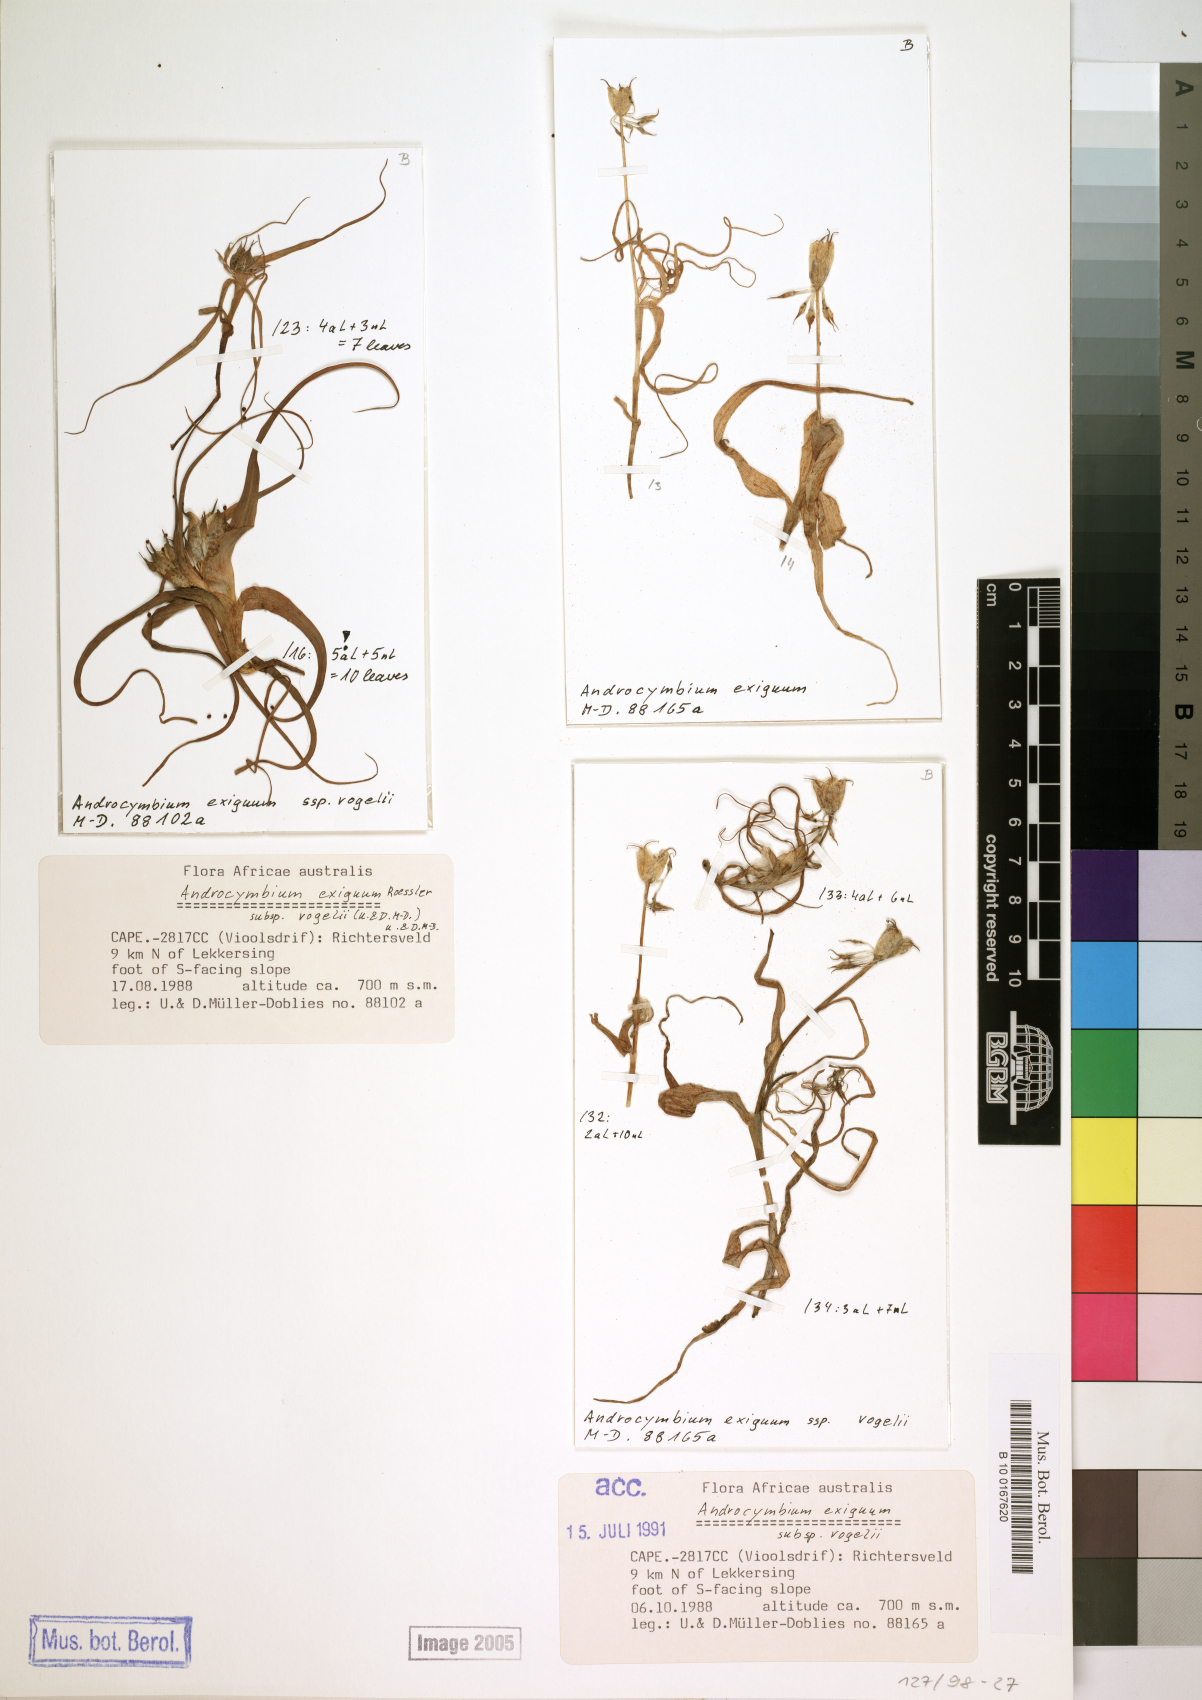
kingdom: Plantae
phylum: Tracheophyta
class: Liliopsida
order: Liliales
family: Colchicaceae
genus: Colchicum
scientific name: Colchicum exiguum
